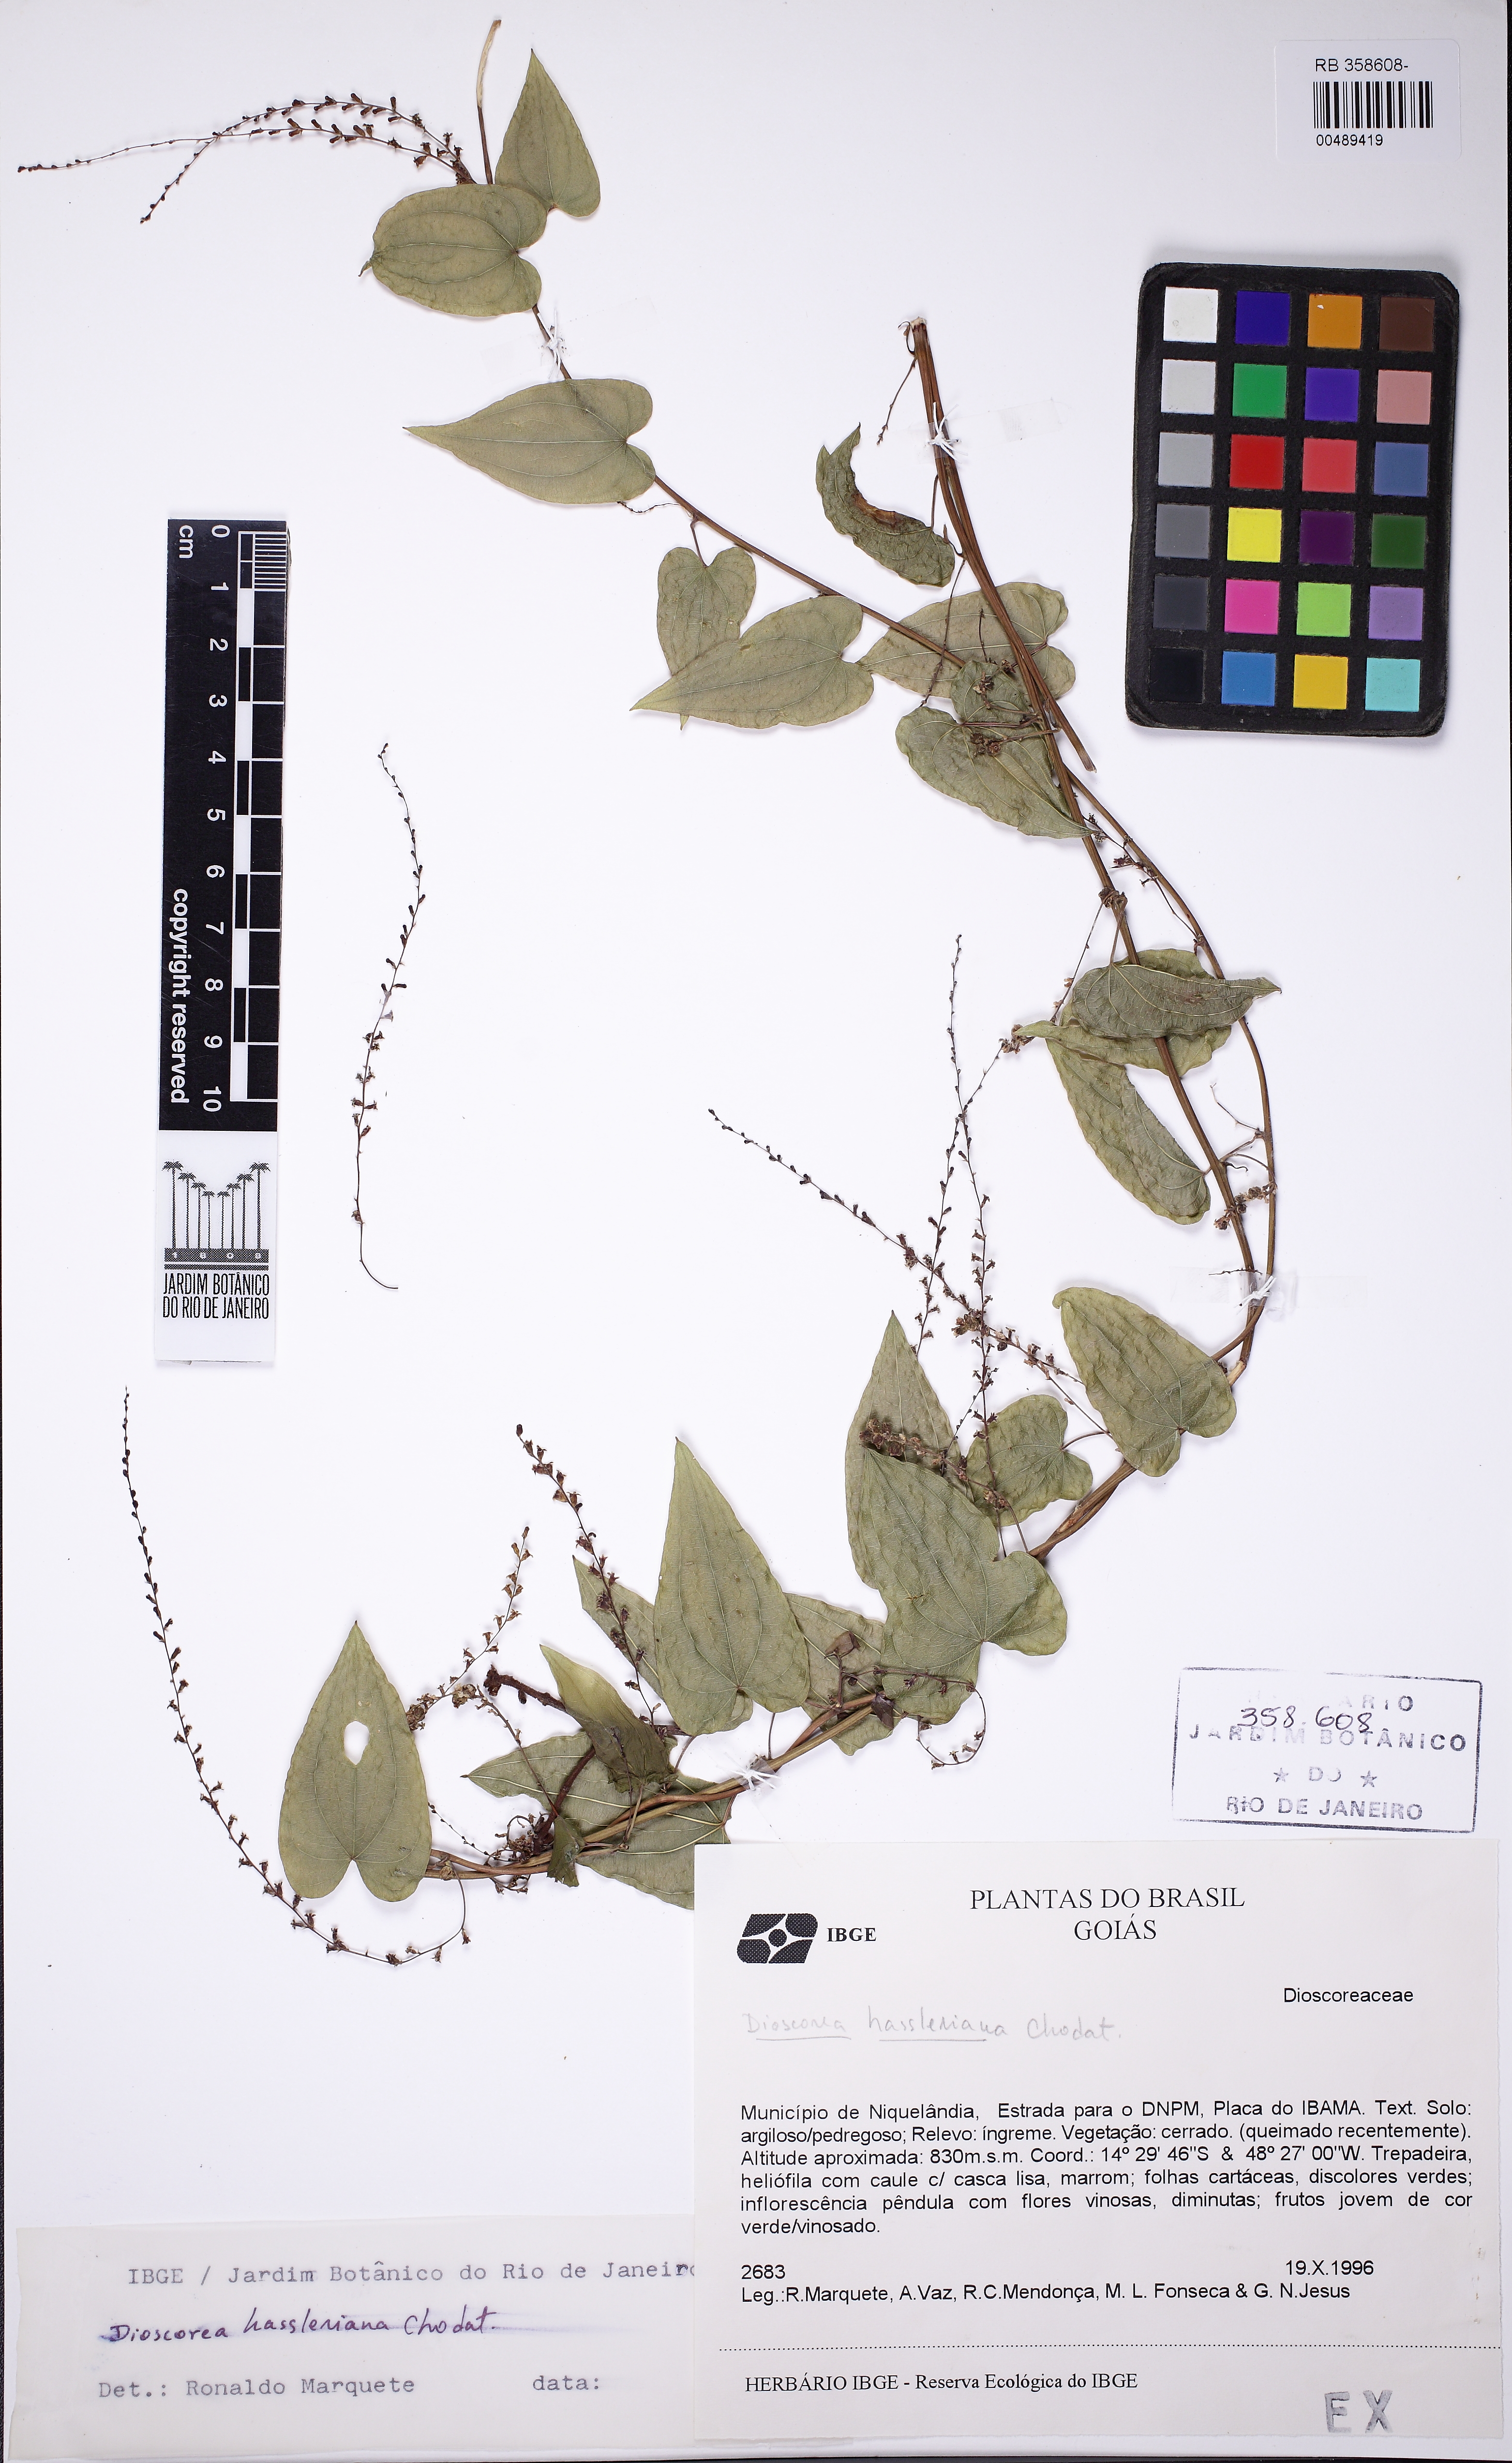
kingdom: Plantae
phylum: Tracheophyta
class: Liliopsida
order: Dioscoreales
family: Dioscoreaceae
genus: Dioscorea
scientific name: Dioscorea orthogoneura
